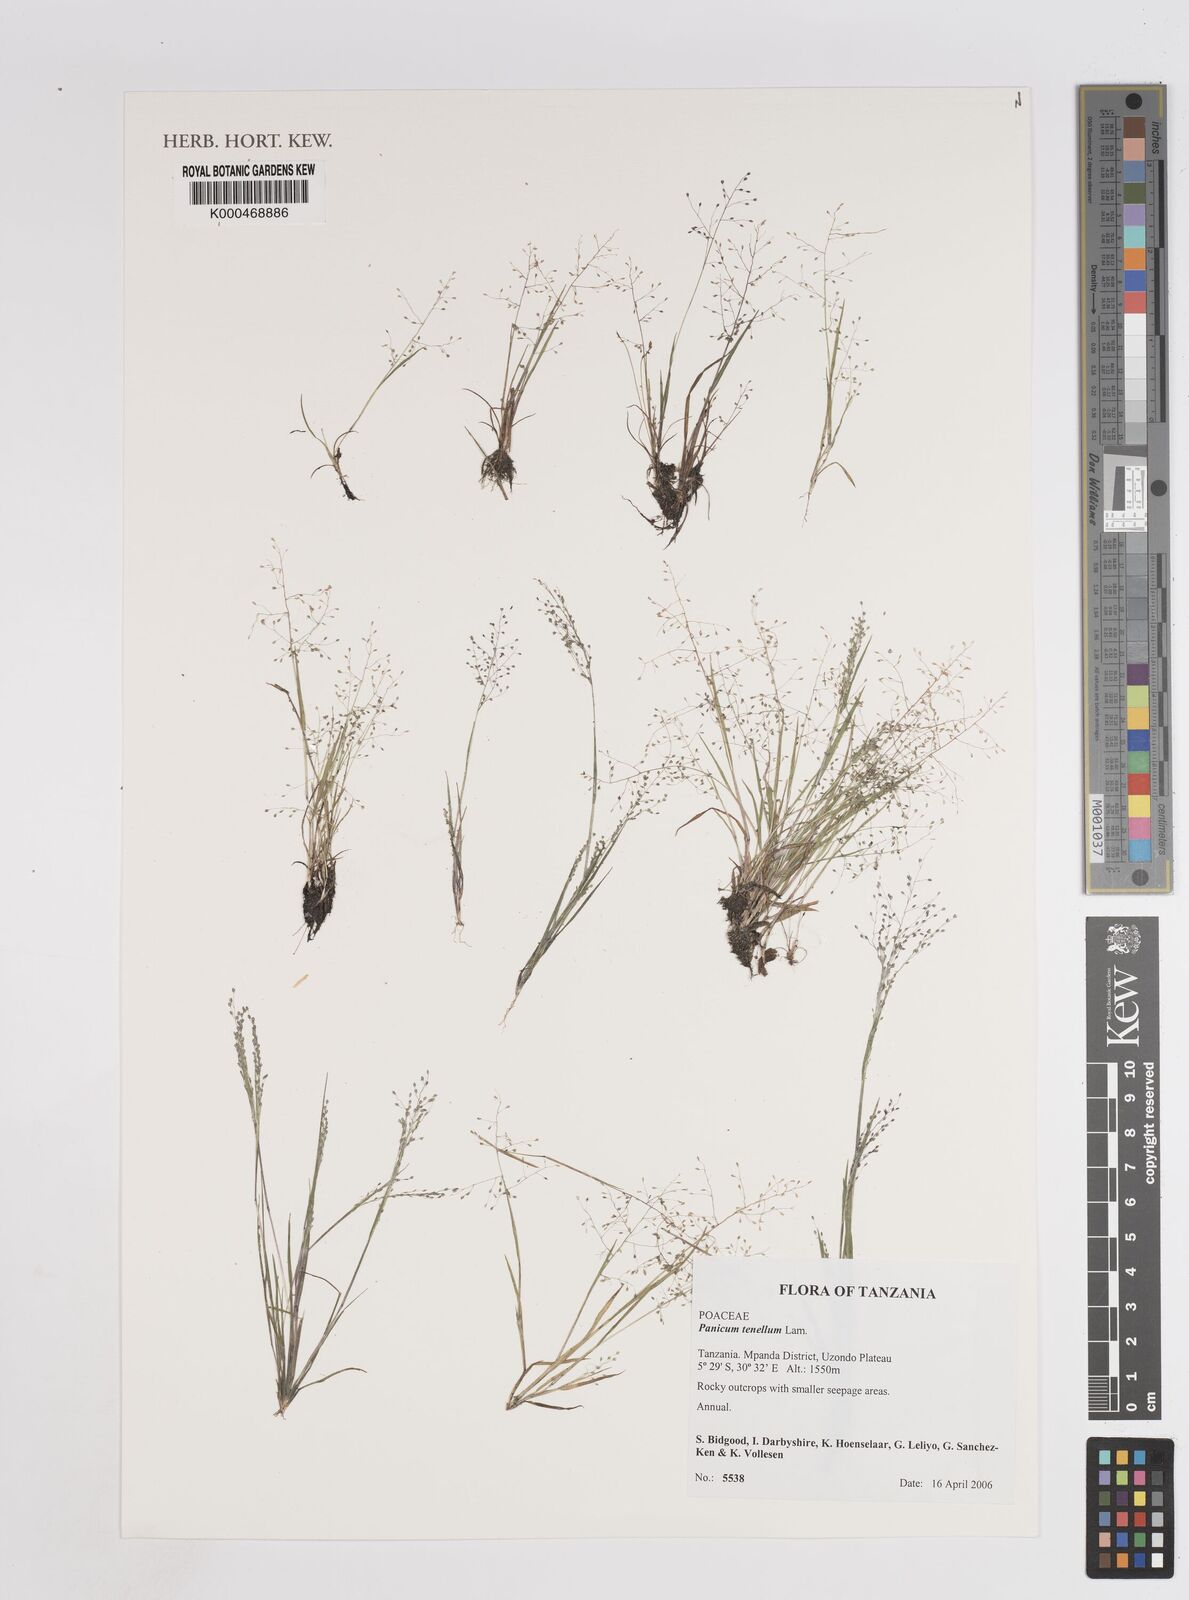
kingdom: Plantae
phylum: Tracheophyta
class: Liliopsida
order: Poales
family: Poaceae
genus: Trichanthecium
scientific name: Trichanthecium tenellum
